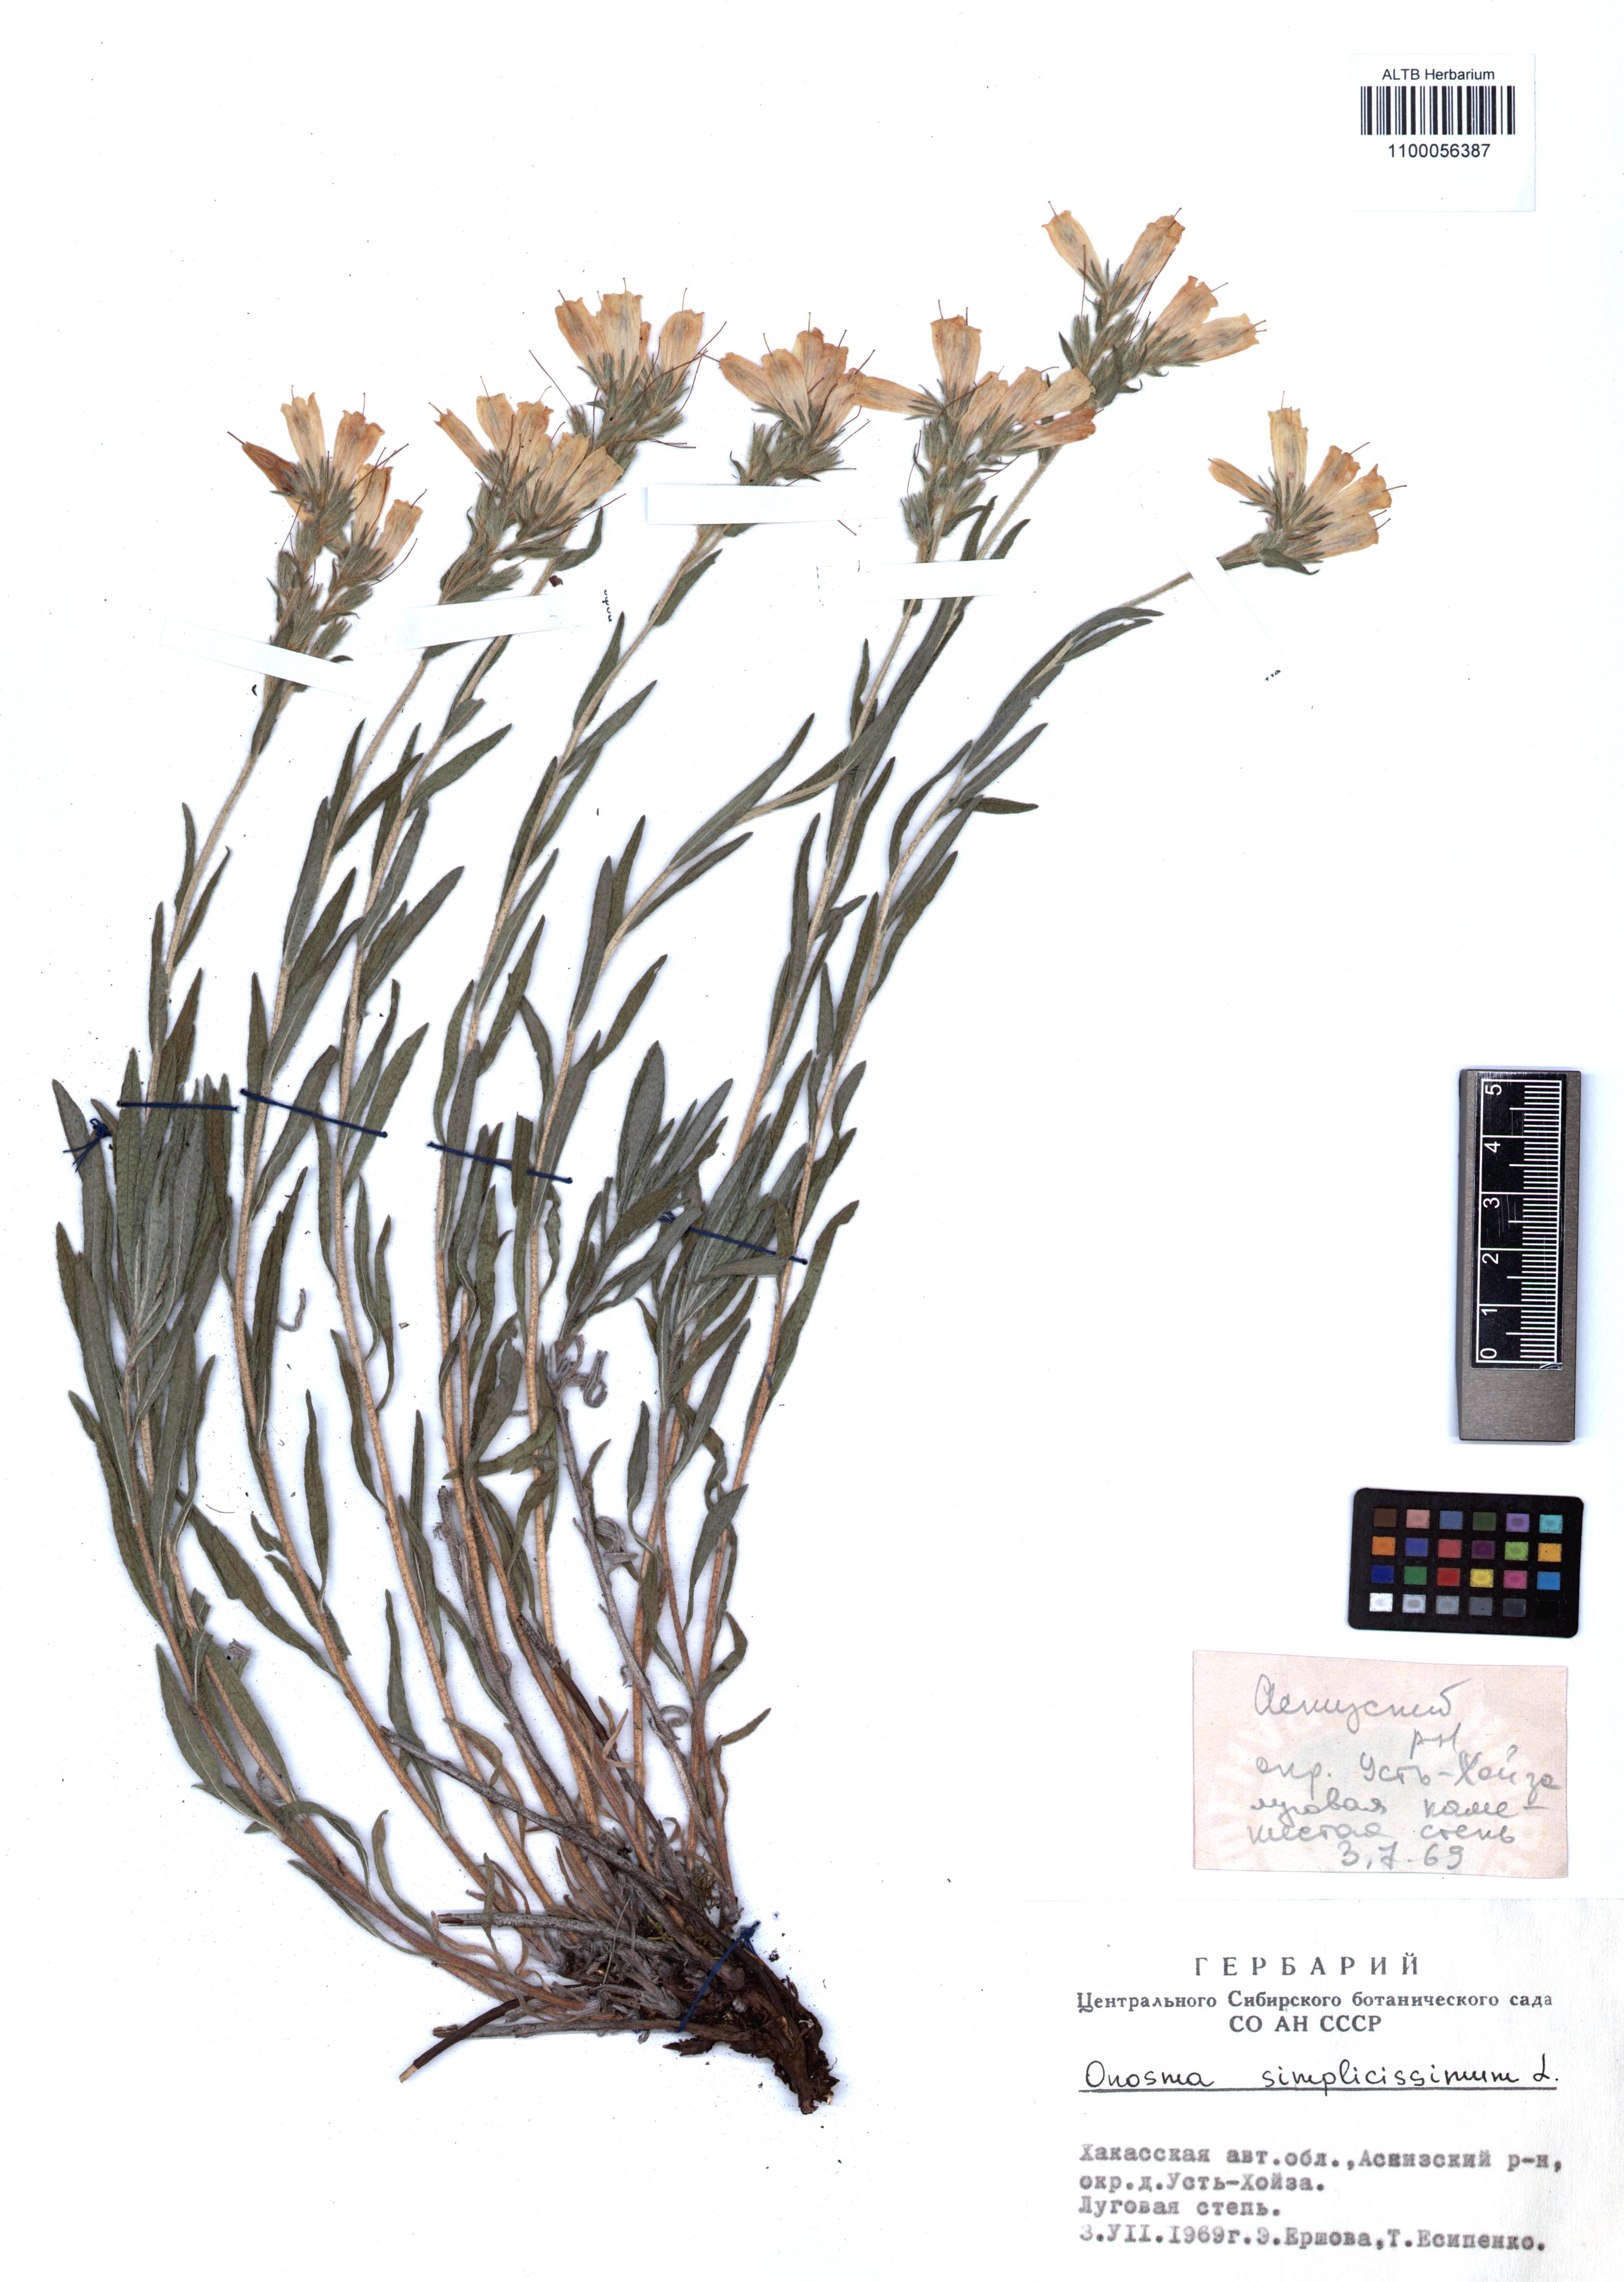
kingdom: Plantae
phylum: Tracheophyta
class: Magnoliopsida
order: Boraginales
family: Boraginaceae
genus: Onosma
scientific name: Onosma simplicissima
